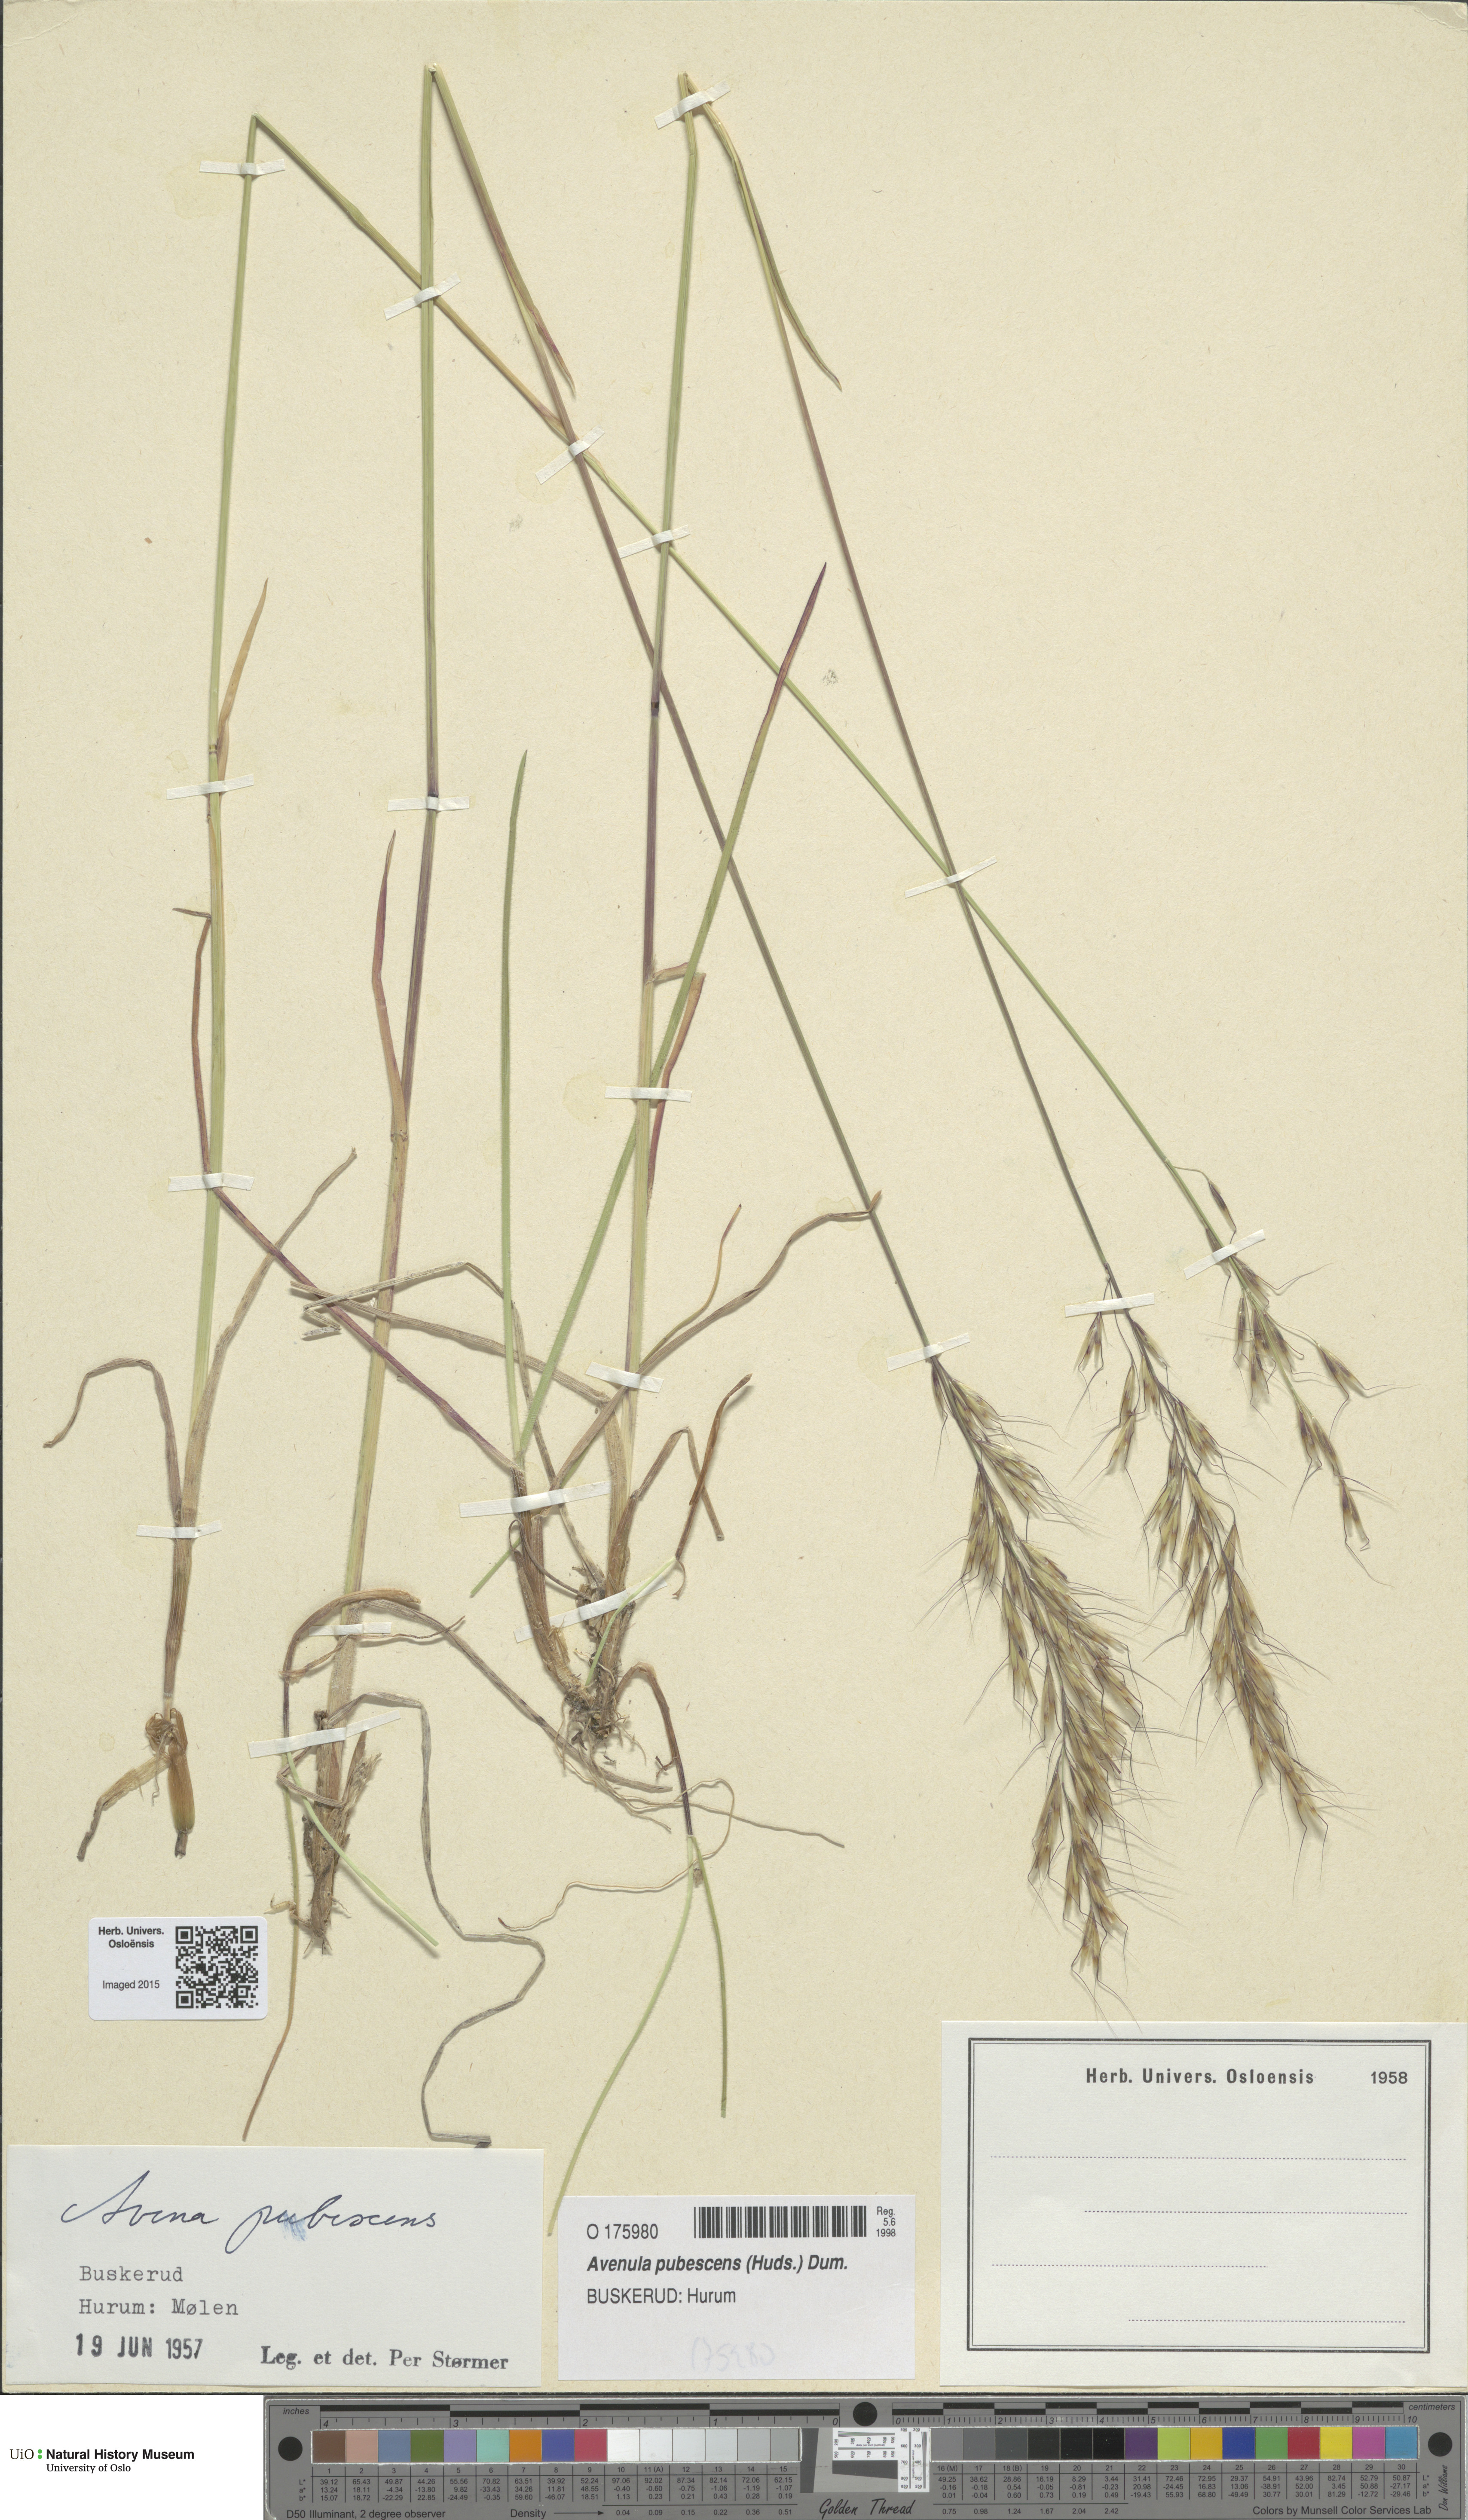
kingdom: Plantae
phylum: Tracheophyta
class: Liliopsida
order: Poales
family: Poaceae
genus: Avenula
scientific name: Avenula pubescens
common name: Downy alpine oatgrass
